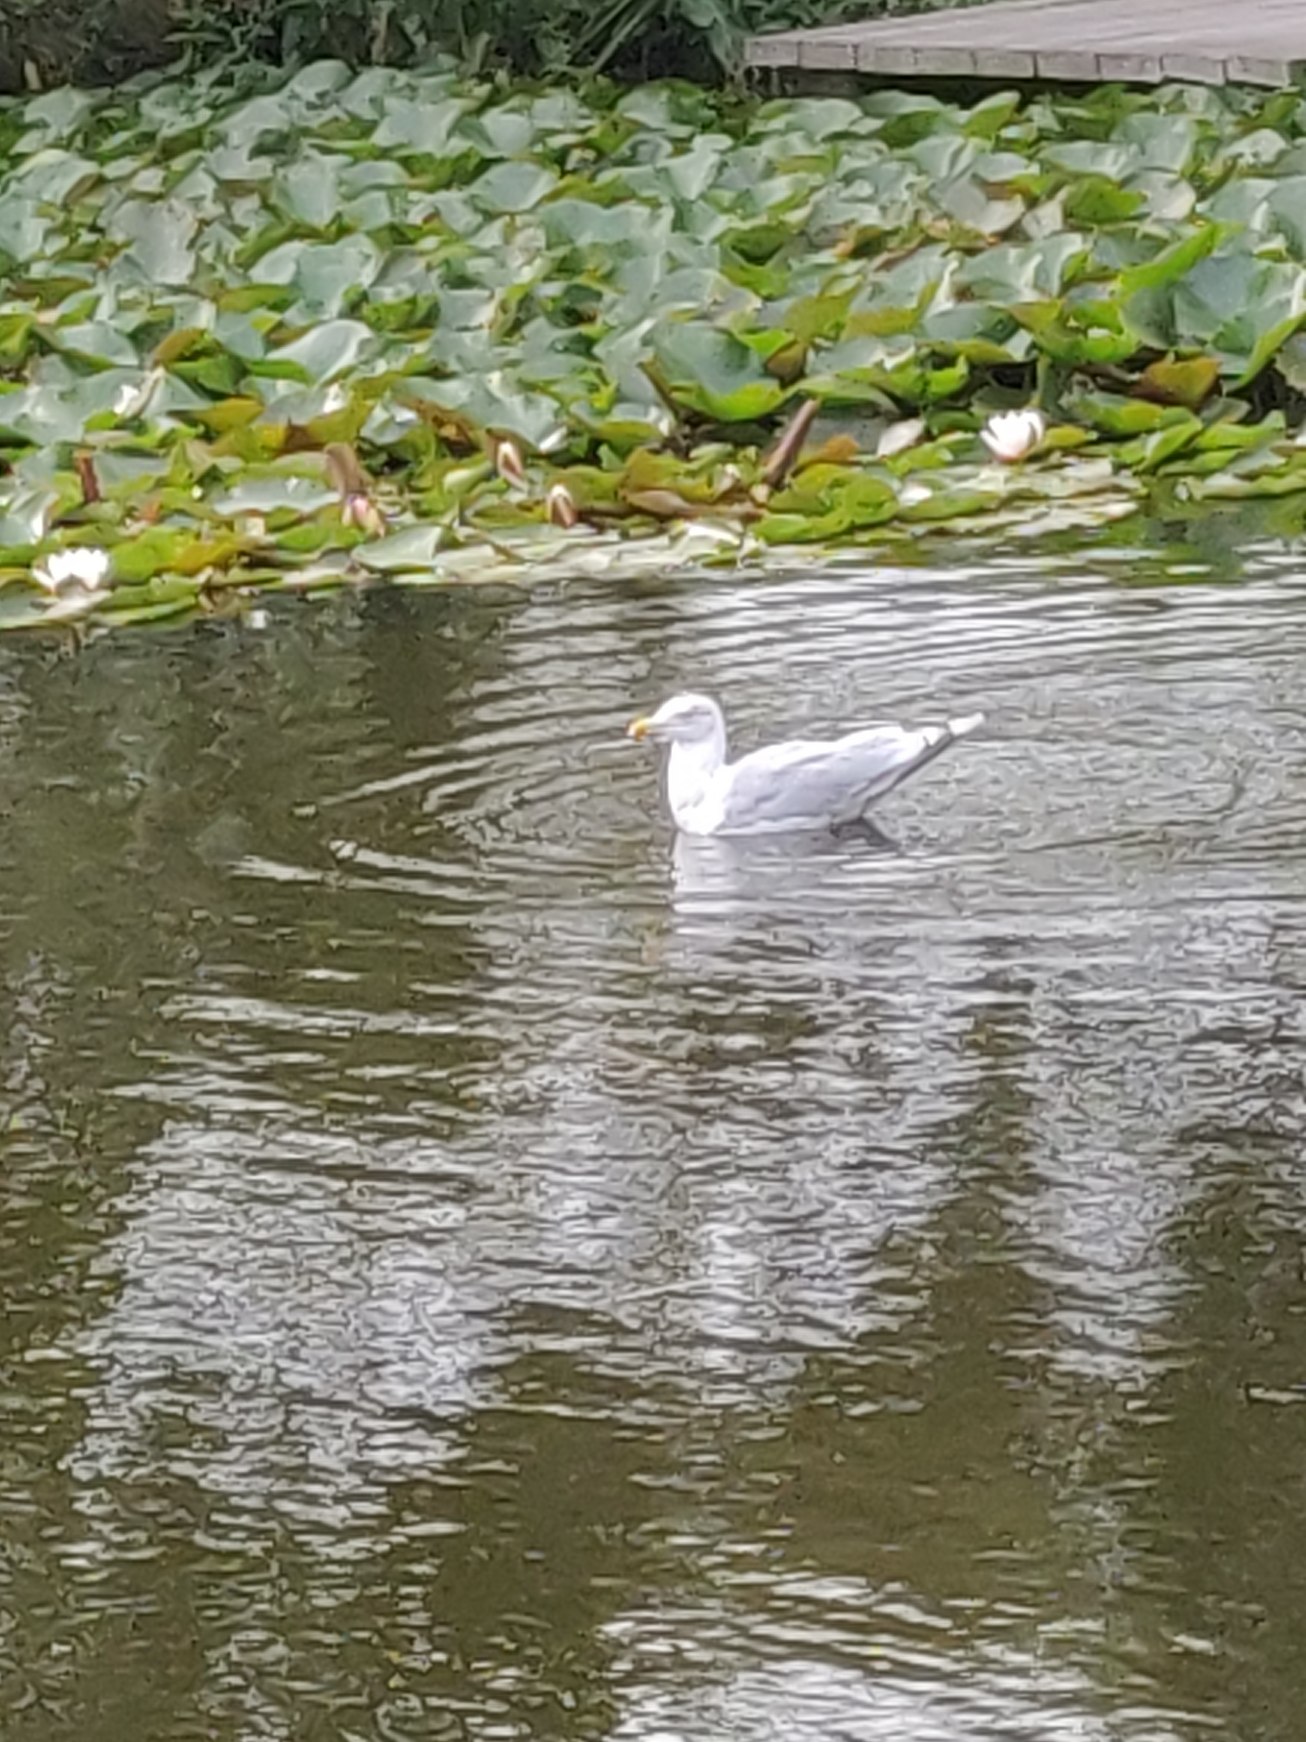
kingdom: Animalia
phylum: Chordata
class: Aves
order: Charadriiformes
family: Laridae
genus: Larus
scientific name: Larus argentatus
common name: Sølvmåge
